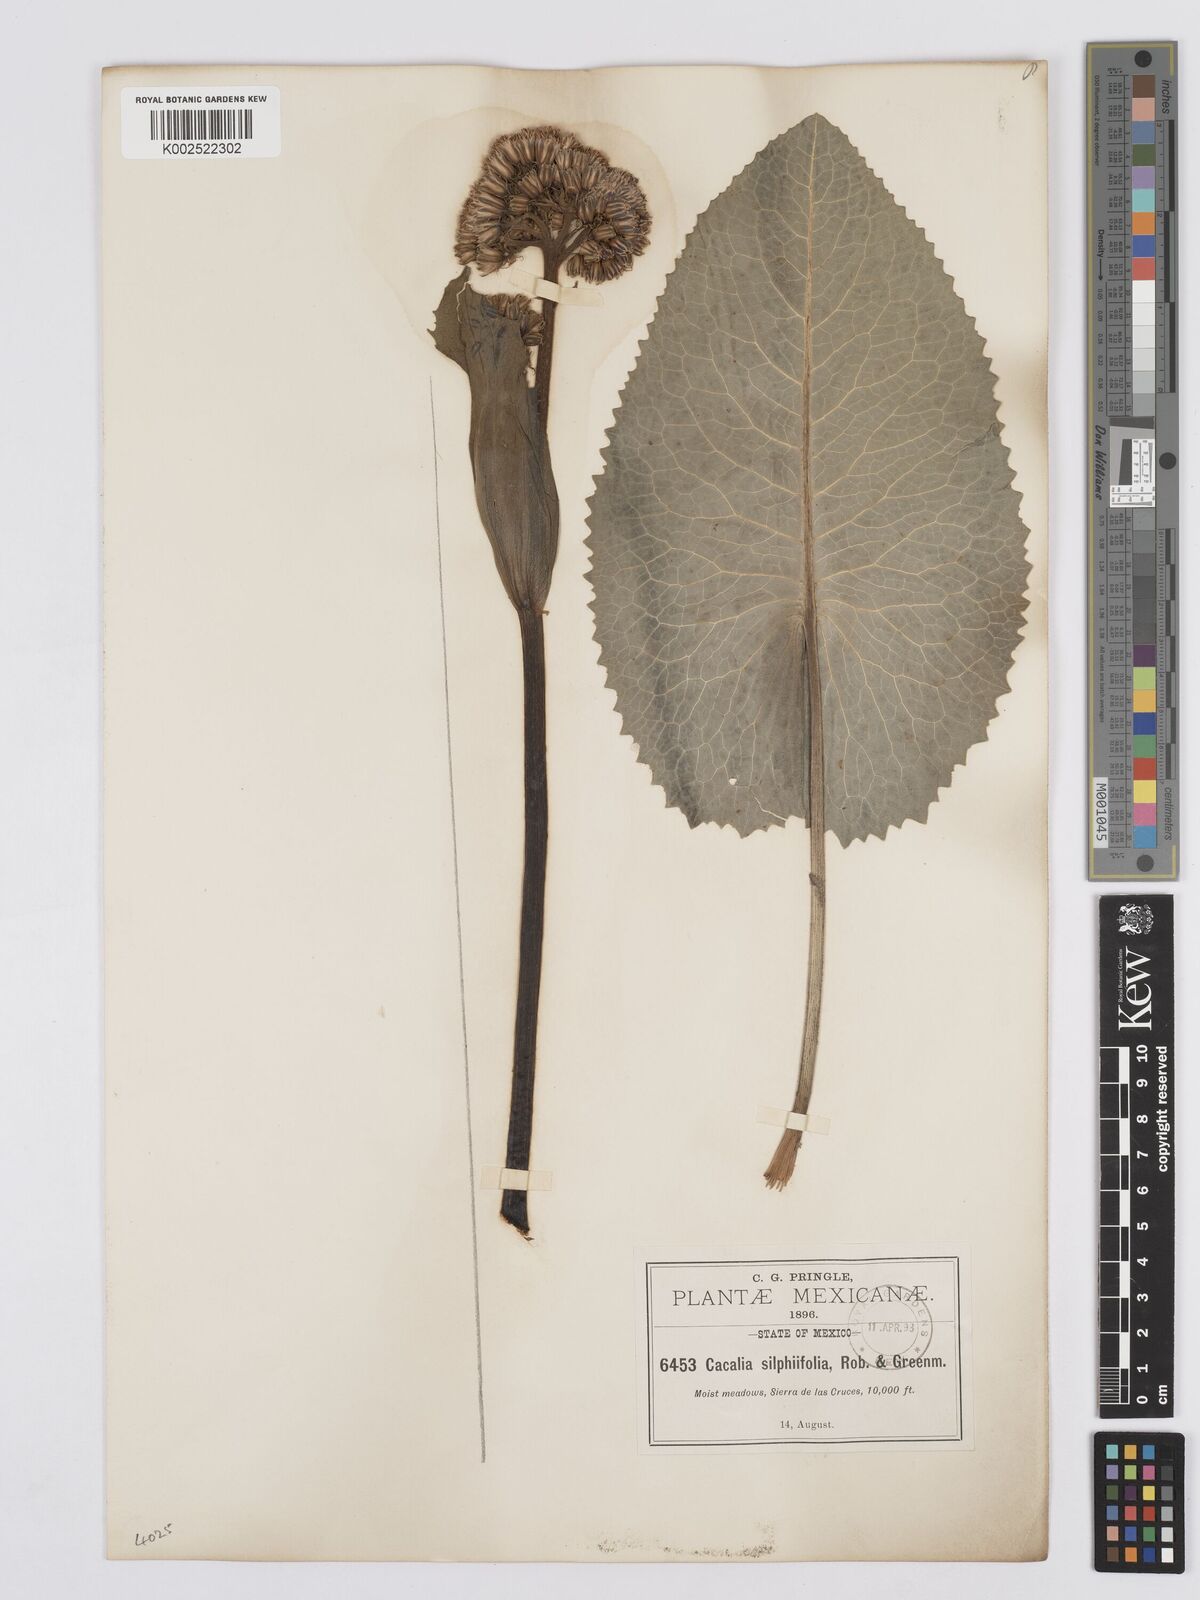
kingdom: Plantae
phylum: Tracheophyta
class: Magnoliopsida
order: Asterales
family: Asteraceae
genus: Psacalium
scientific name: Psacalium silphiifolium
